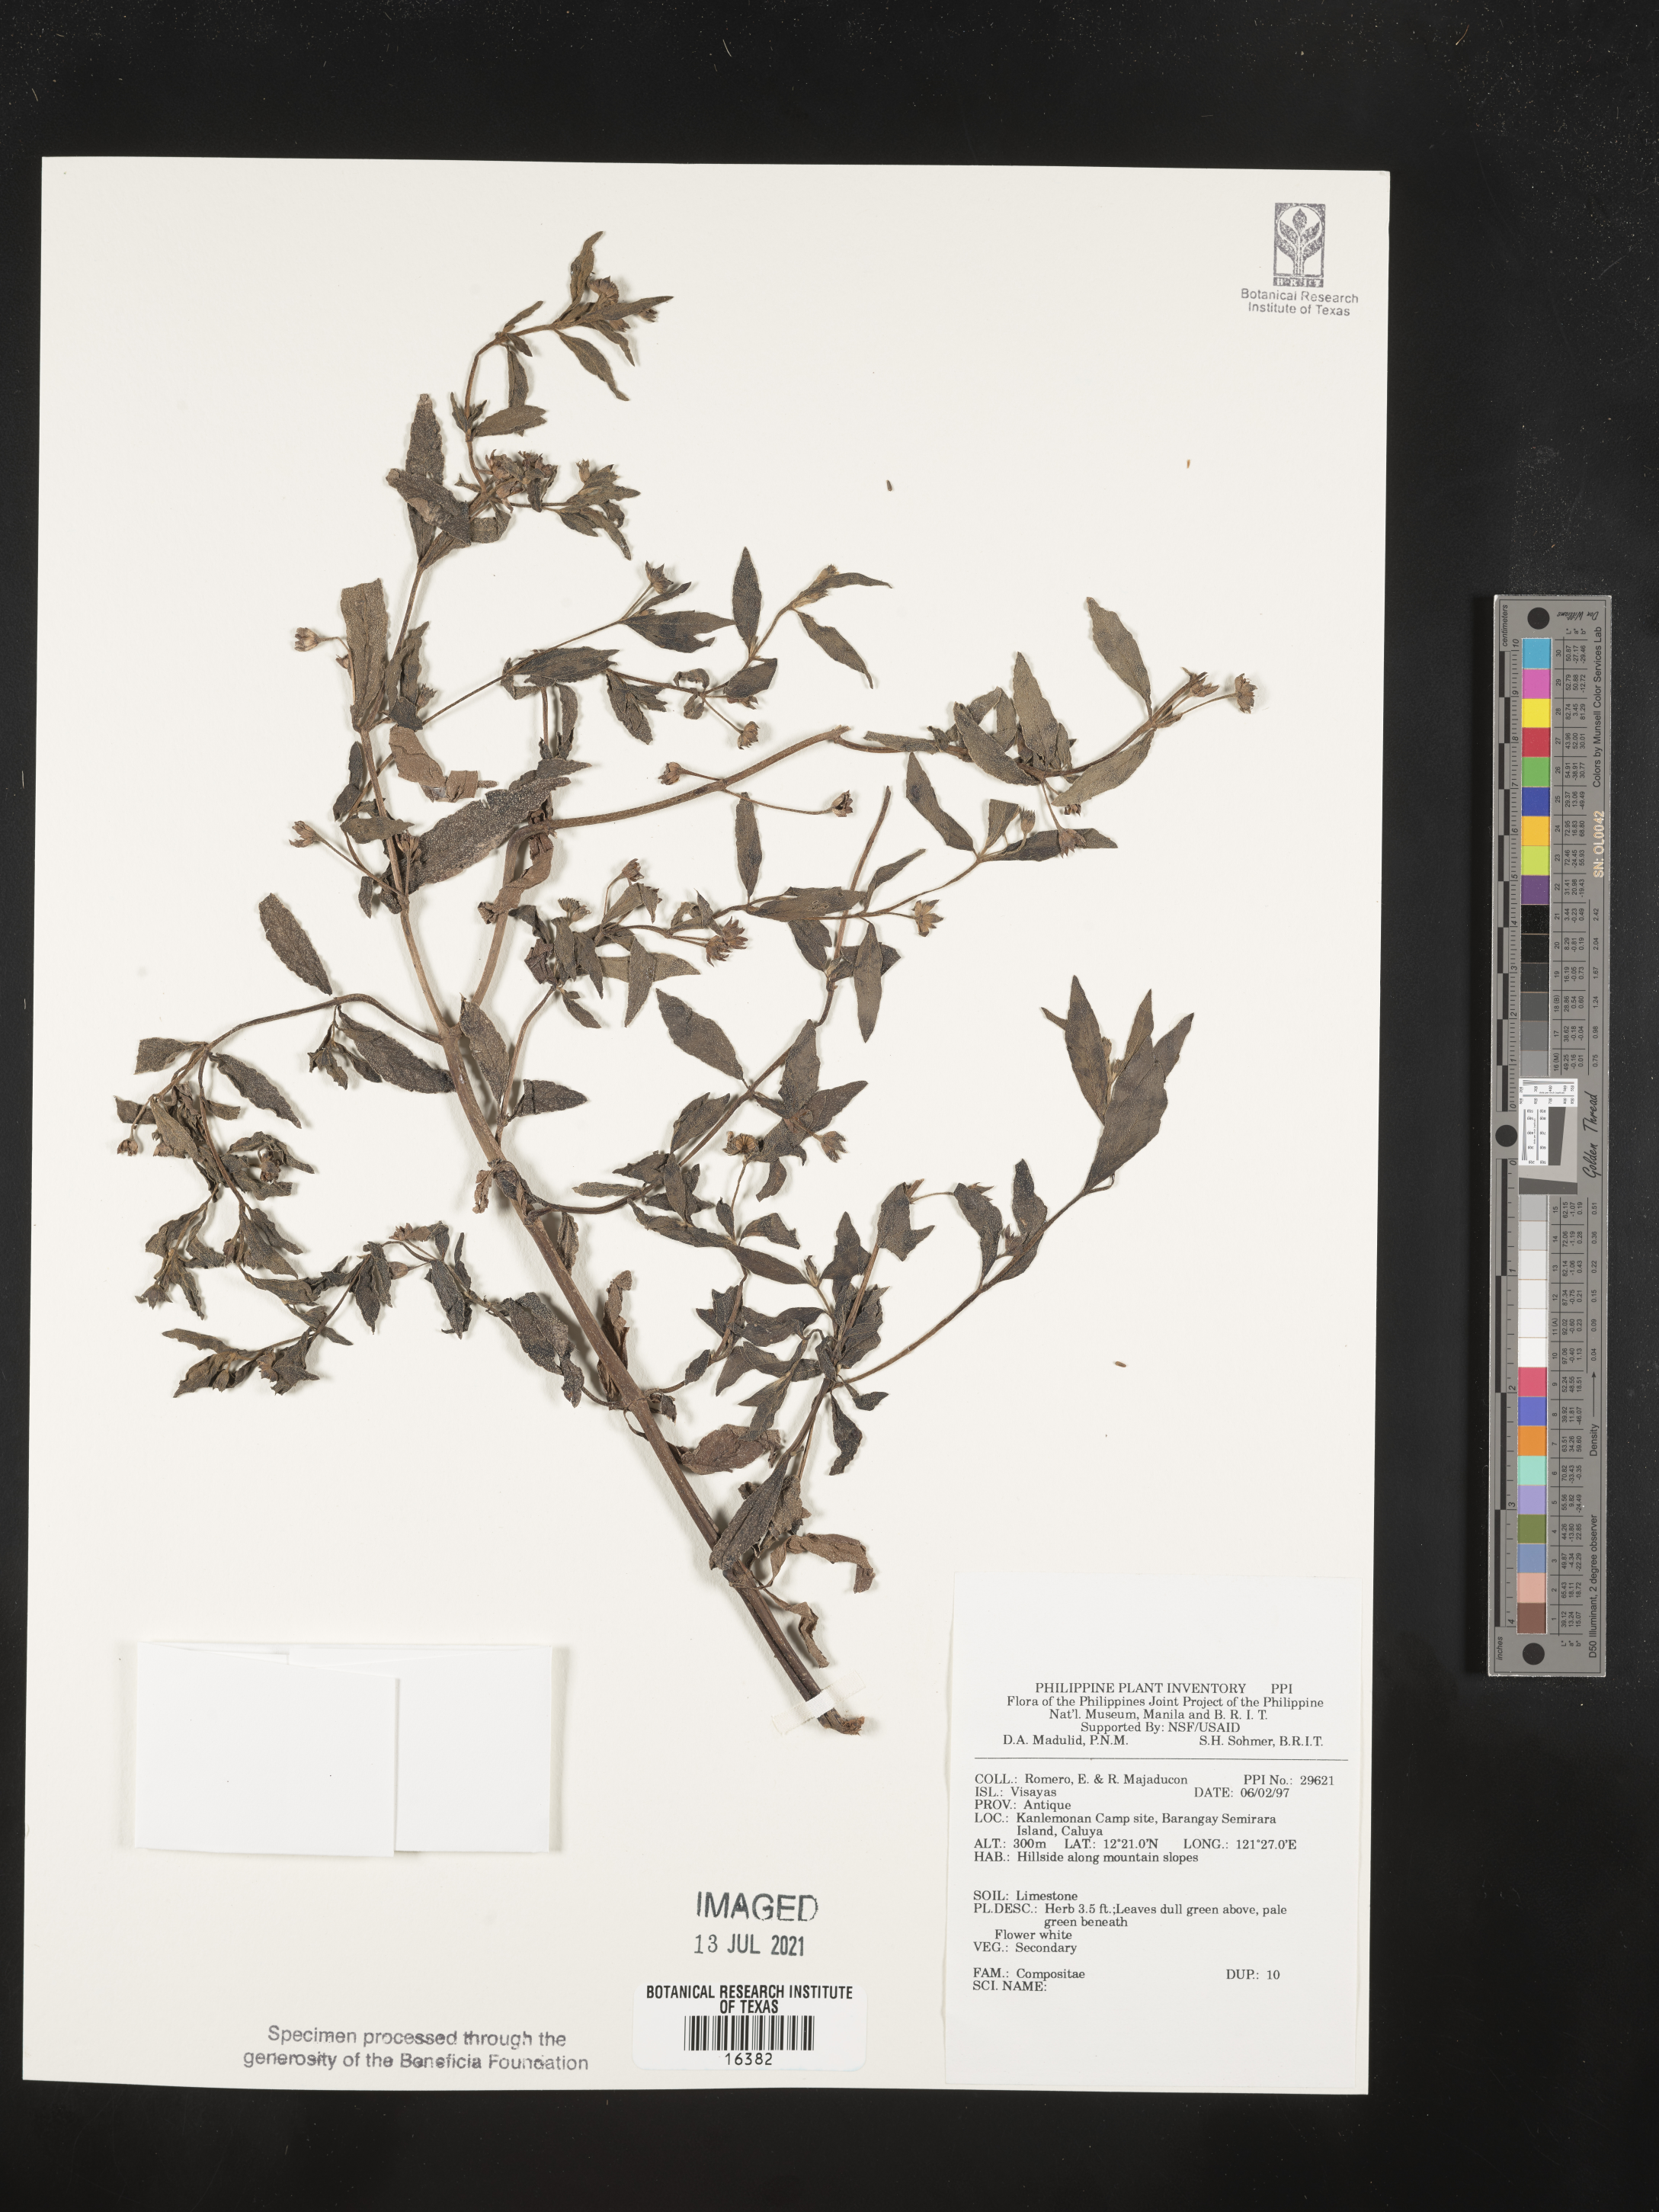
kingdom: Plantae
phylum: Tracheophyta
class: Magnoliopsida
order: Asterales
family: Asteraceae
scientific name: Asteraceae
